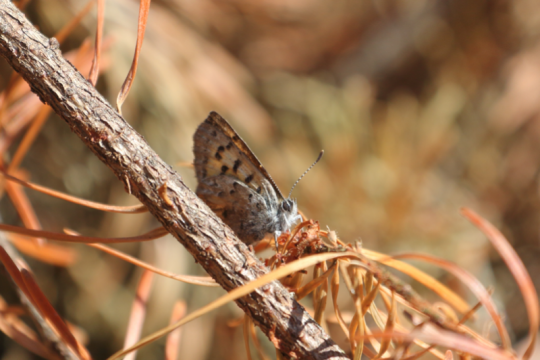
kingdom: Animalia
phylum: Arthropoda
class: Insecta
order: Lepidoptera
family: Lycaenidae
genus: Lycaena
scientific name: Lycaena mariposa
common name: Mariposa Copper
